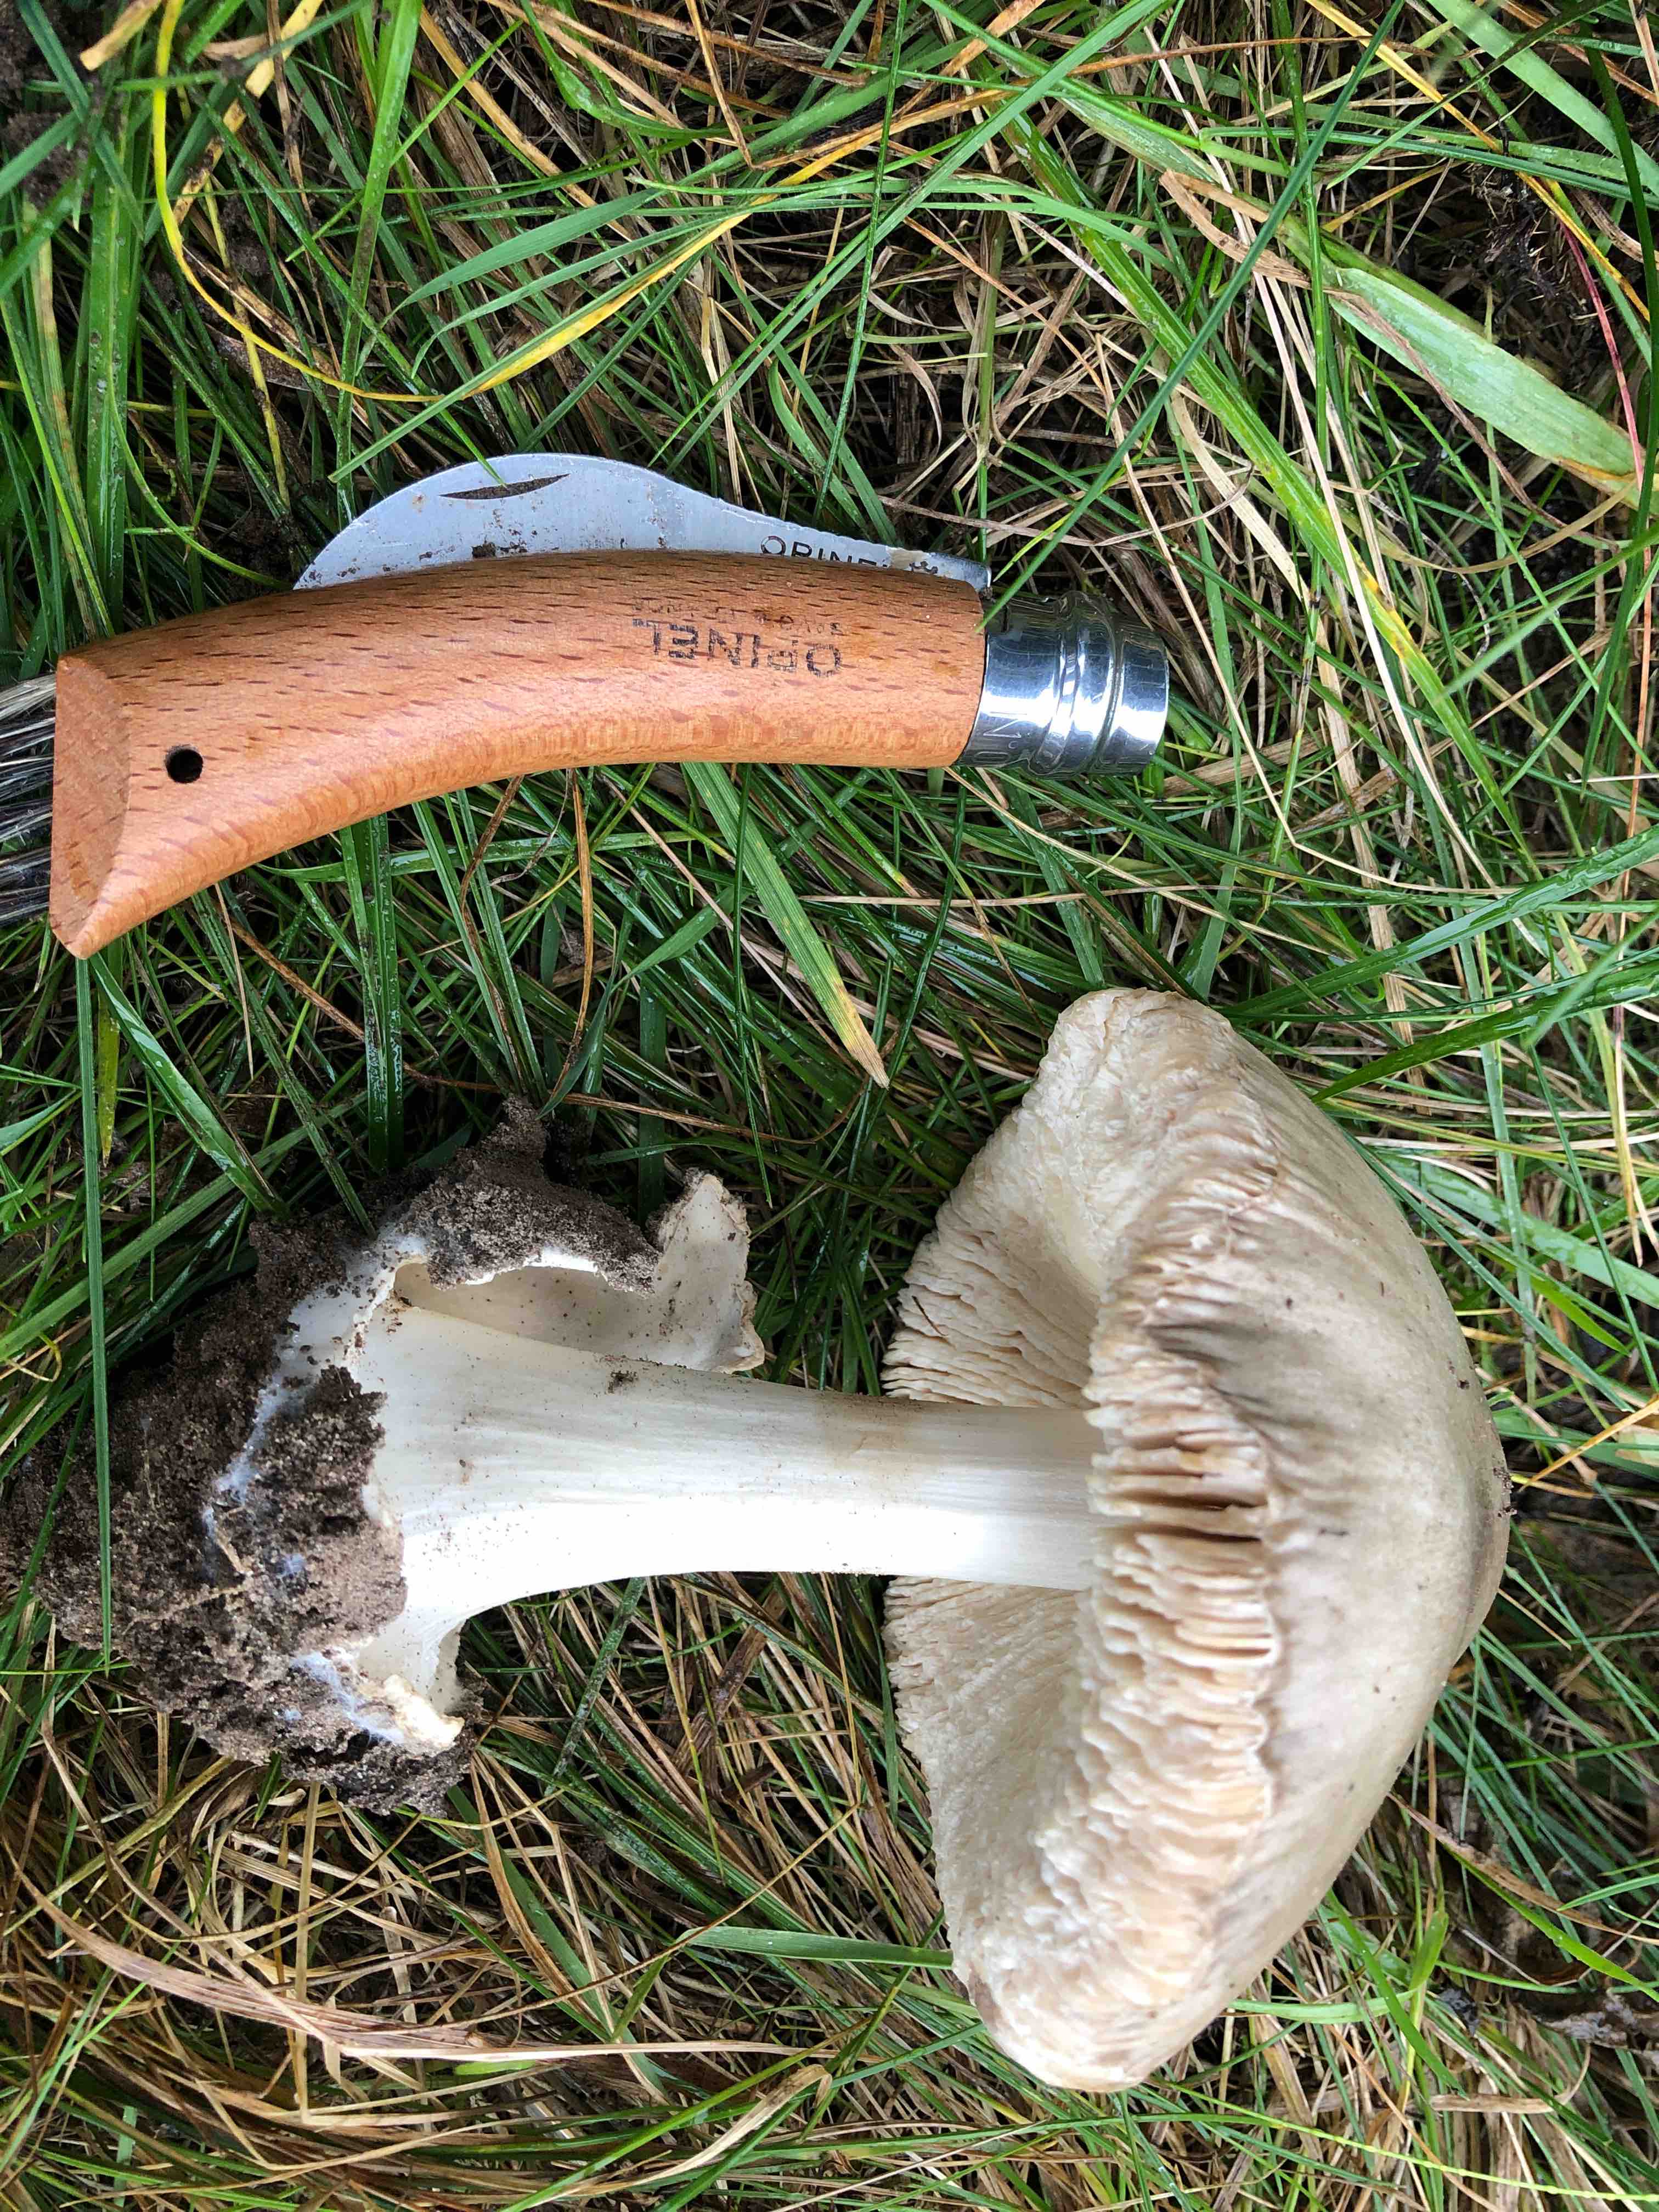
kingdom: Fungi
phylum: Basidiomycota
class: Agaricomycetes
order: Agaricales
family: Pluteaceae
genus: Volvopluteus
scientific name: Volvopluteus gloiocephalus
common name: høj posesvamp
